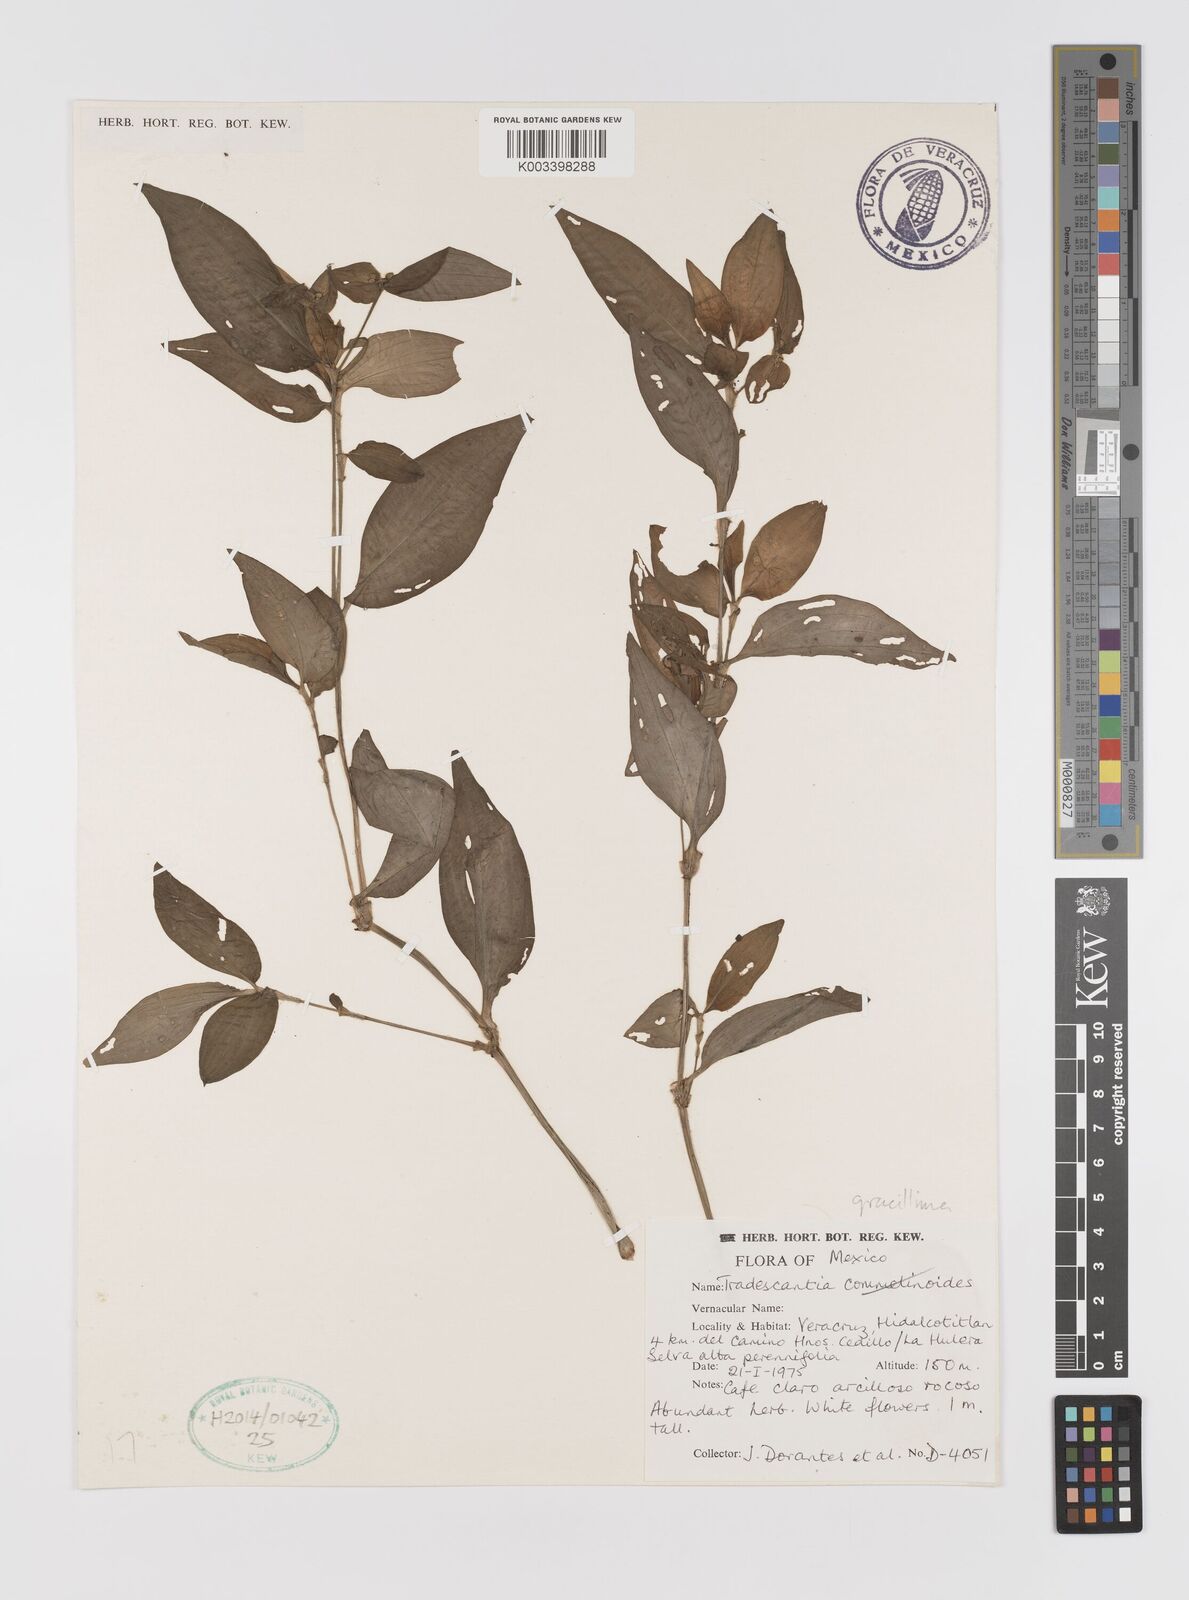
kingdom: Plantae
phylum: Tracheophyta
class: Liliopsida
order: Commelinales
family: Commelinaceae
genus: Tradescantia
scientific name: Tradescantia gracillima
